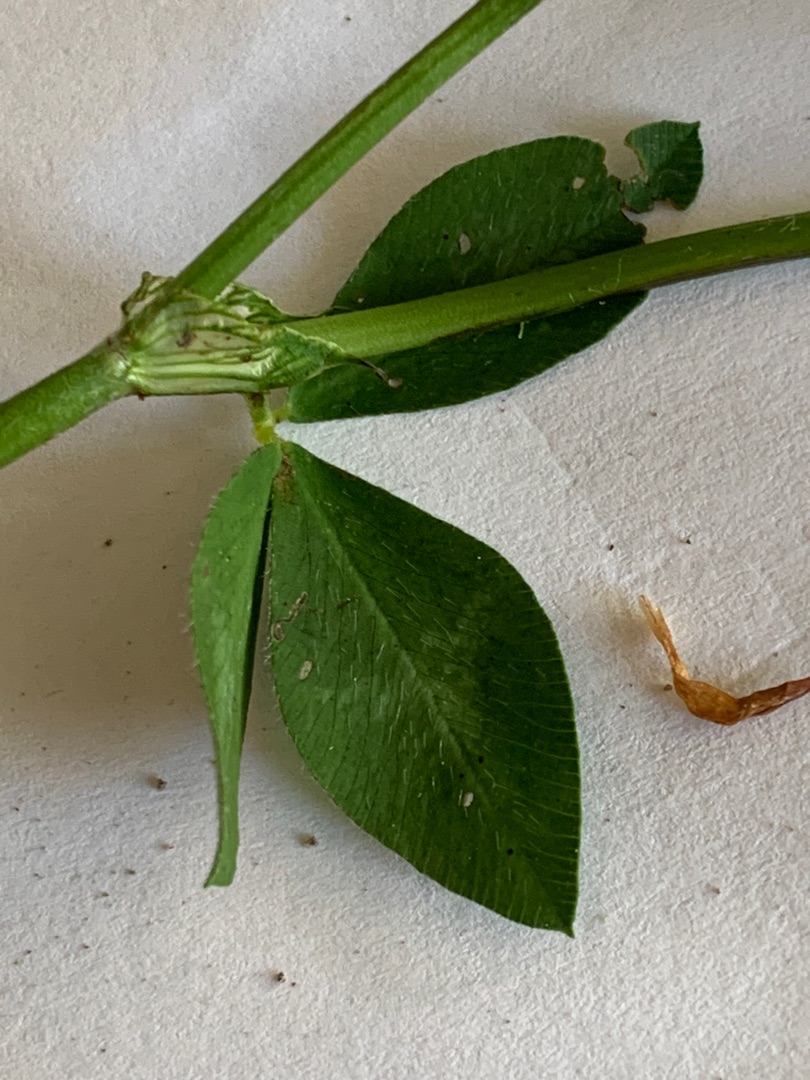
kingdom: Plantae
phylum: Tracheophyta
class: Magnoliopsida
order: Fabales
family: Fabaceae
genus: Trifolium
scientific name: Trifolium pratense
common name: Rød-kløver
